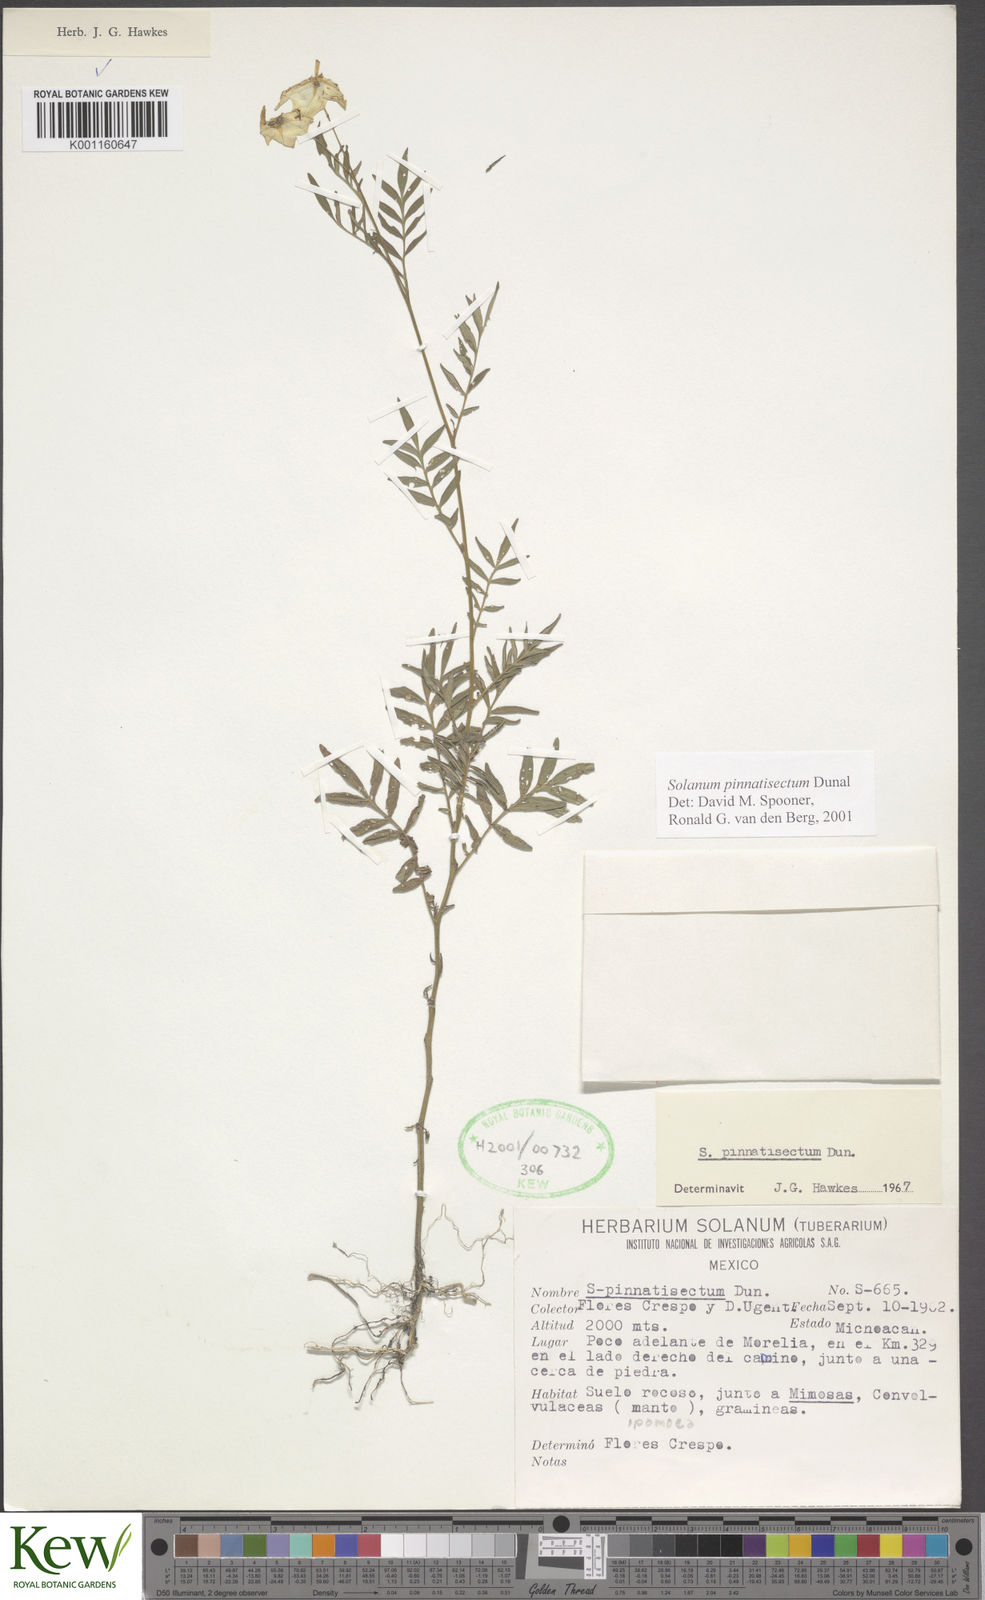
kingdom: Plantae
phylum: Tracheophyta
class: Magnoliopsida
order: Solanales
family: Solanaceae
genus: Solanum
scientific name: Solanum pinnatisectum
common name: Tansyleaf nightshade
